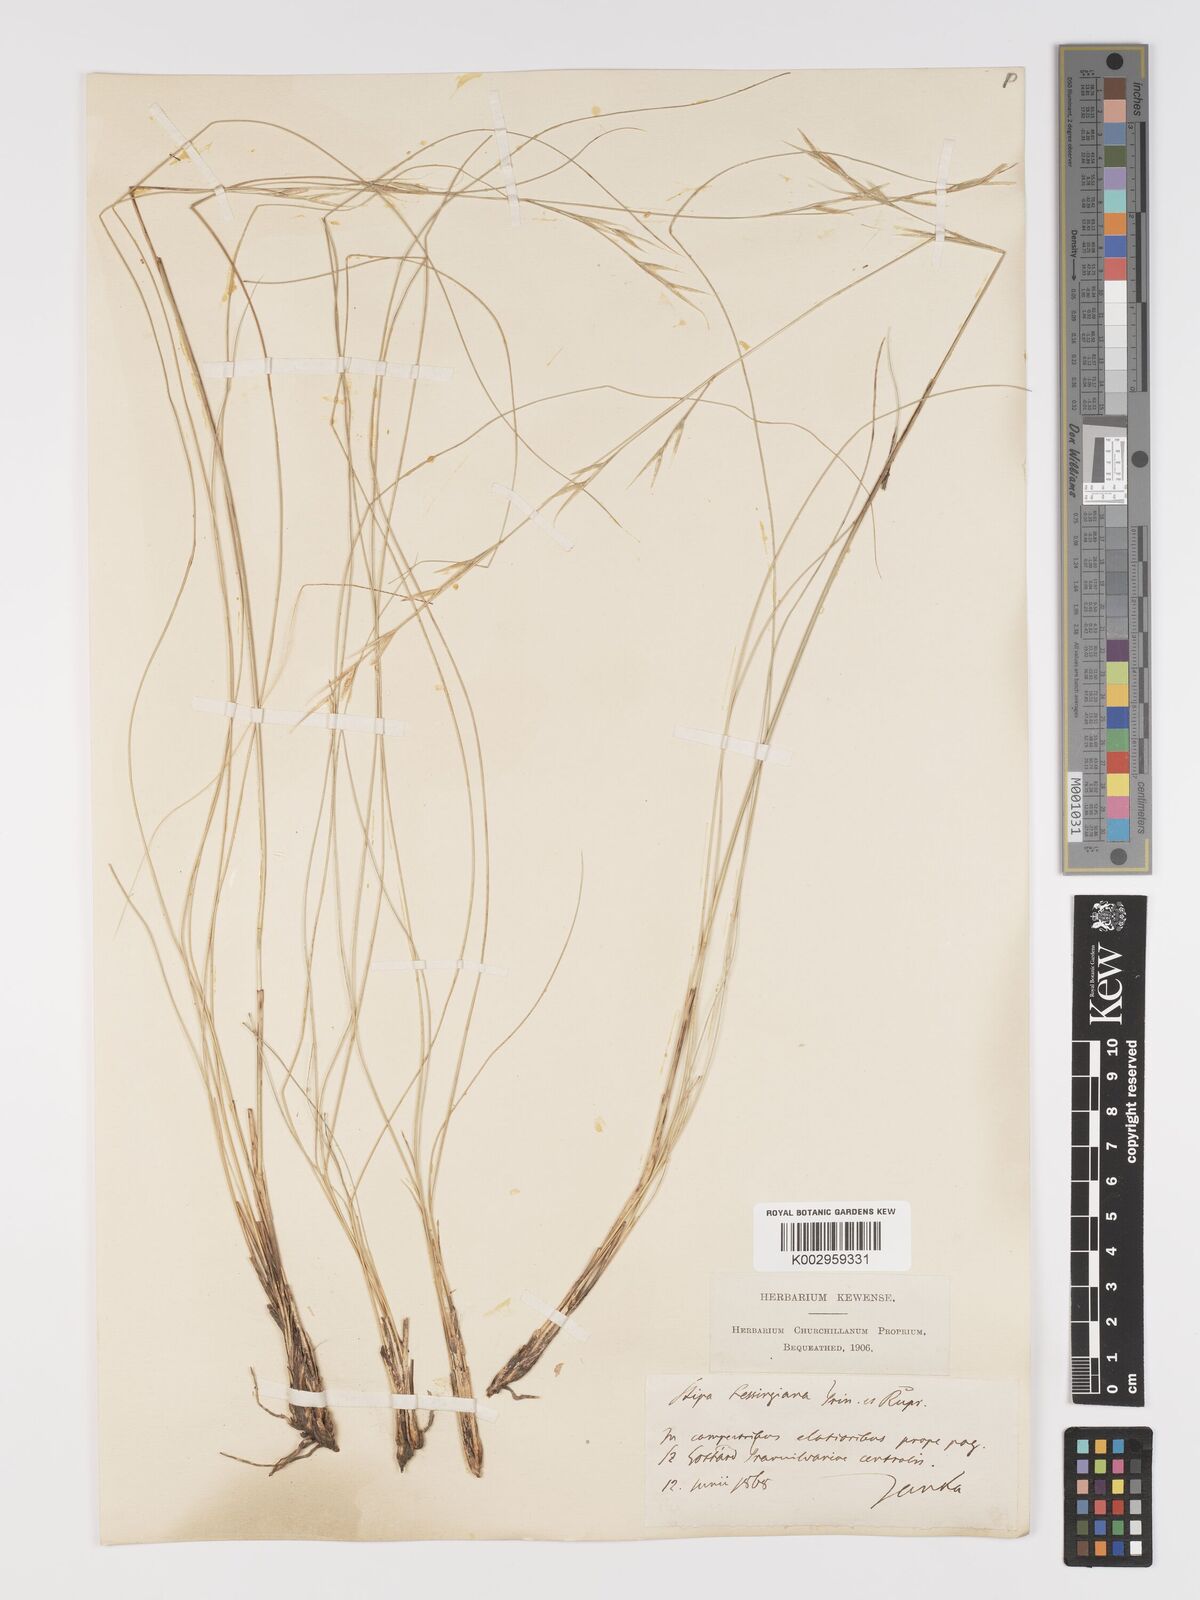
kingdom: Plantae
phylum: Tracheophyta
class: Liliopsida
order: Poales
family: Poaceae
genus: Stipa
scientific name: Stipa lessingiana
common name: Needle grass
